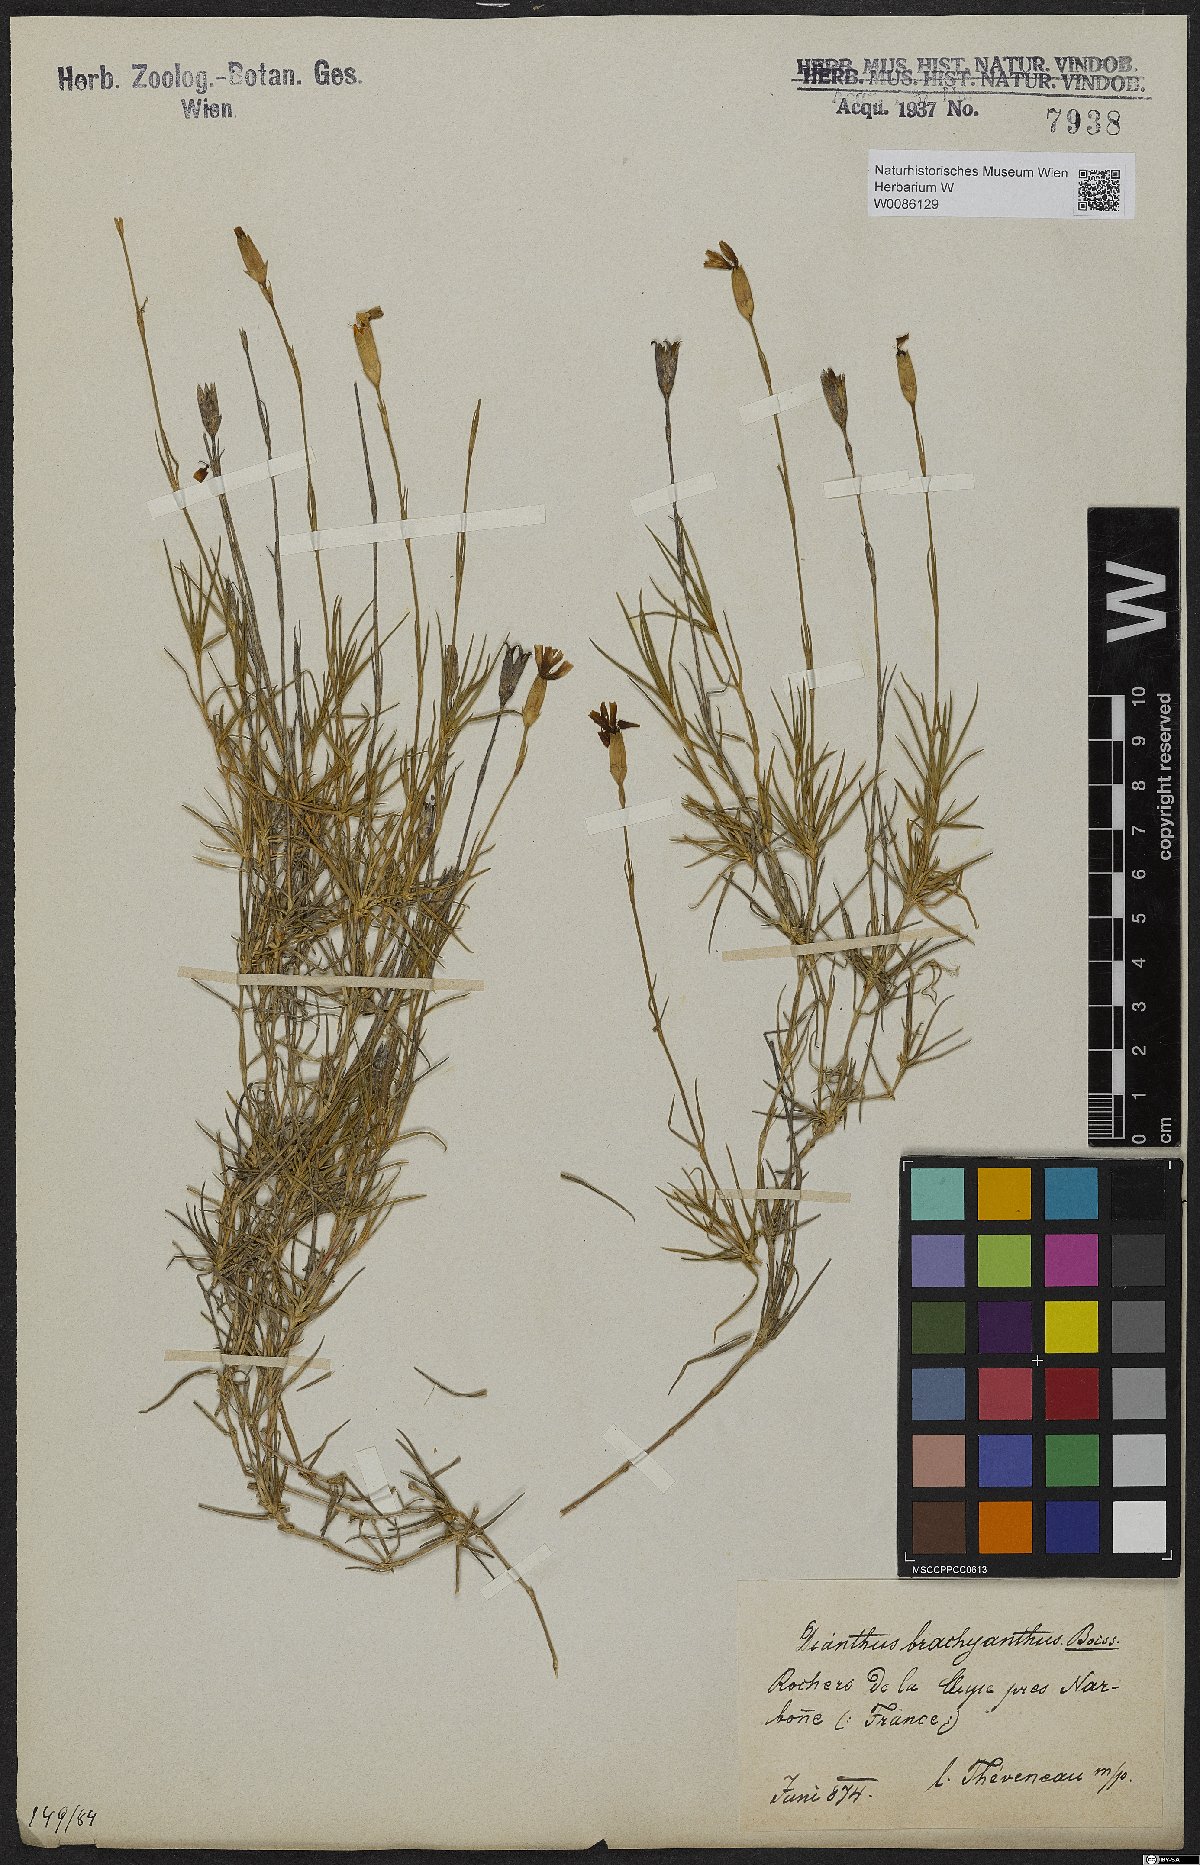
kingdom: Plantae
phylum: Tracheophyta
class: Magnoliopsida
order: Caryophyllales
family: Caryophyllaceae
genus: Dianthus
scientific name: Dianthus pungens
